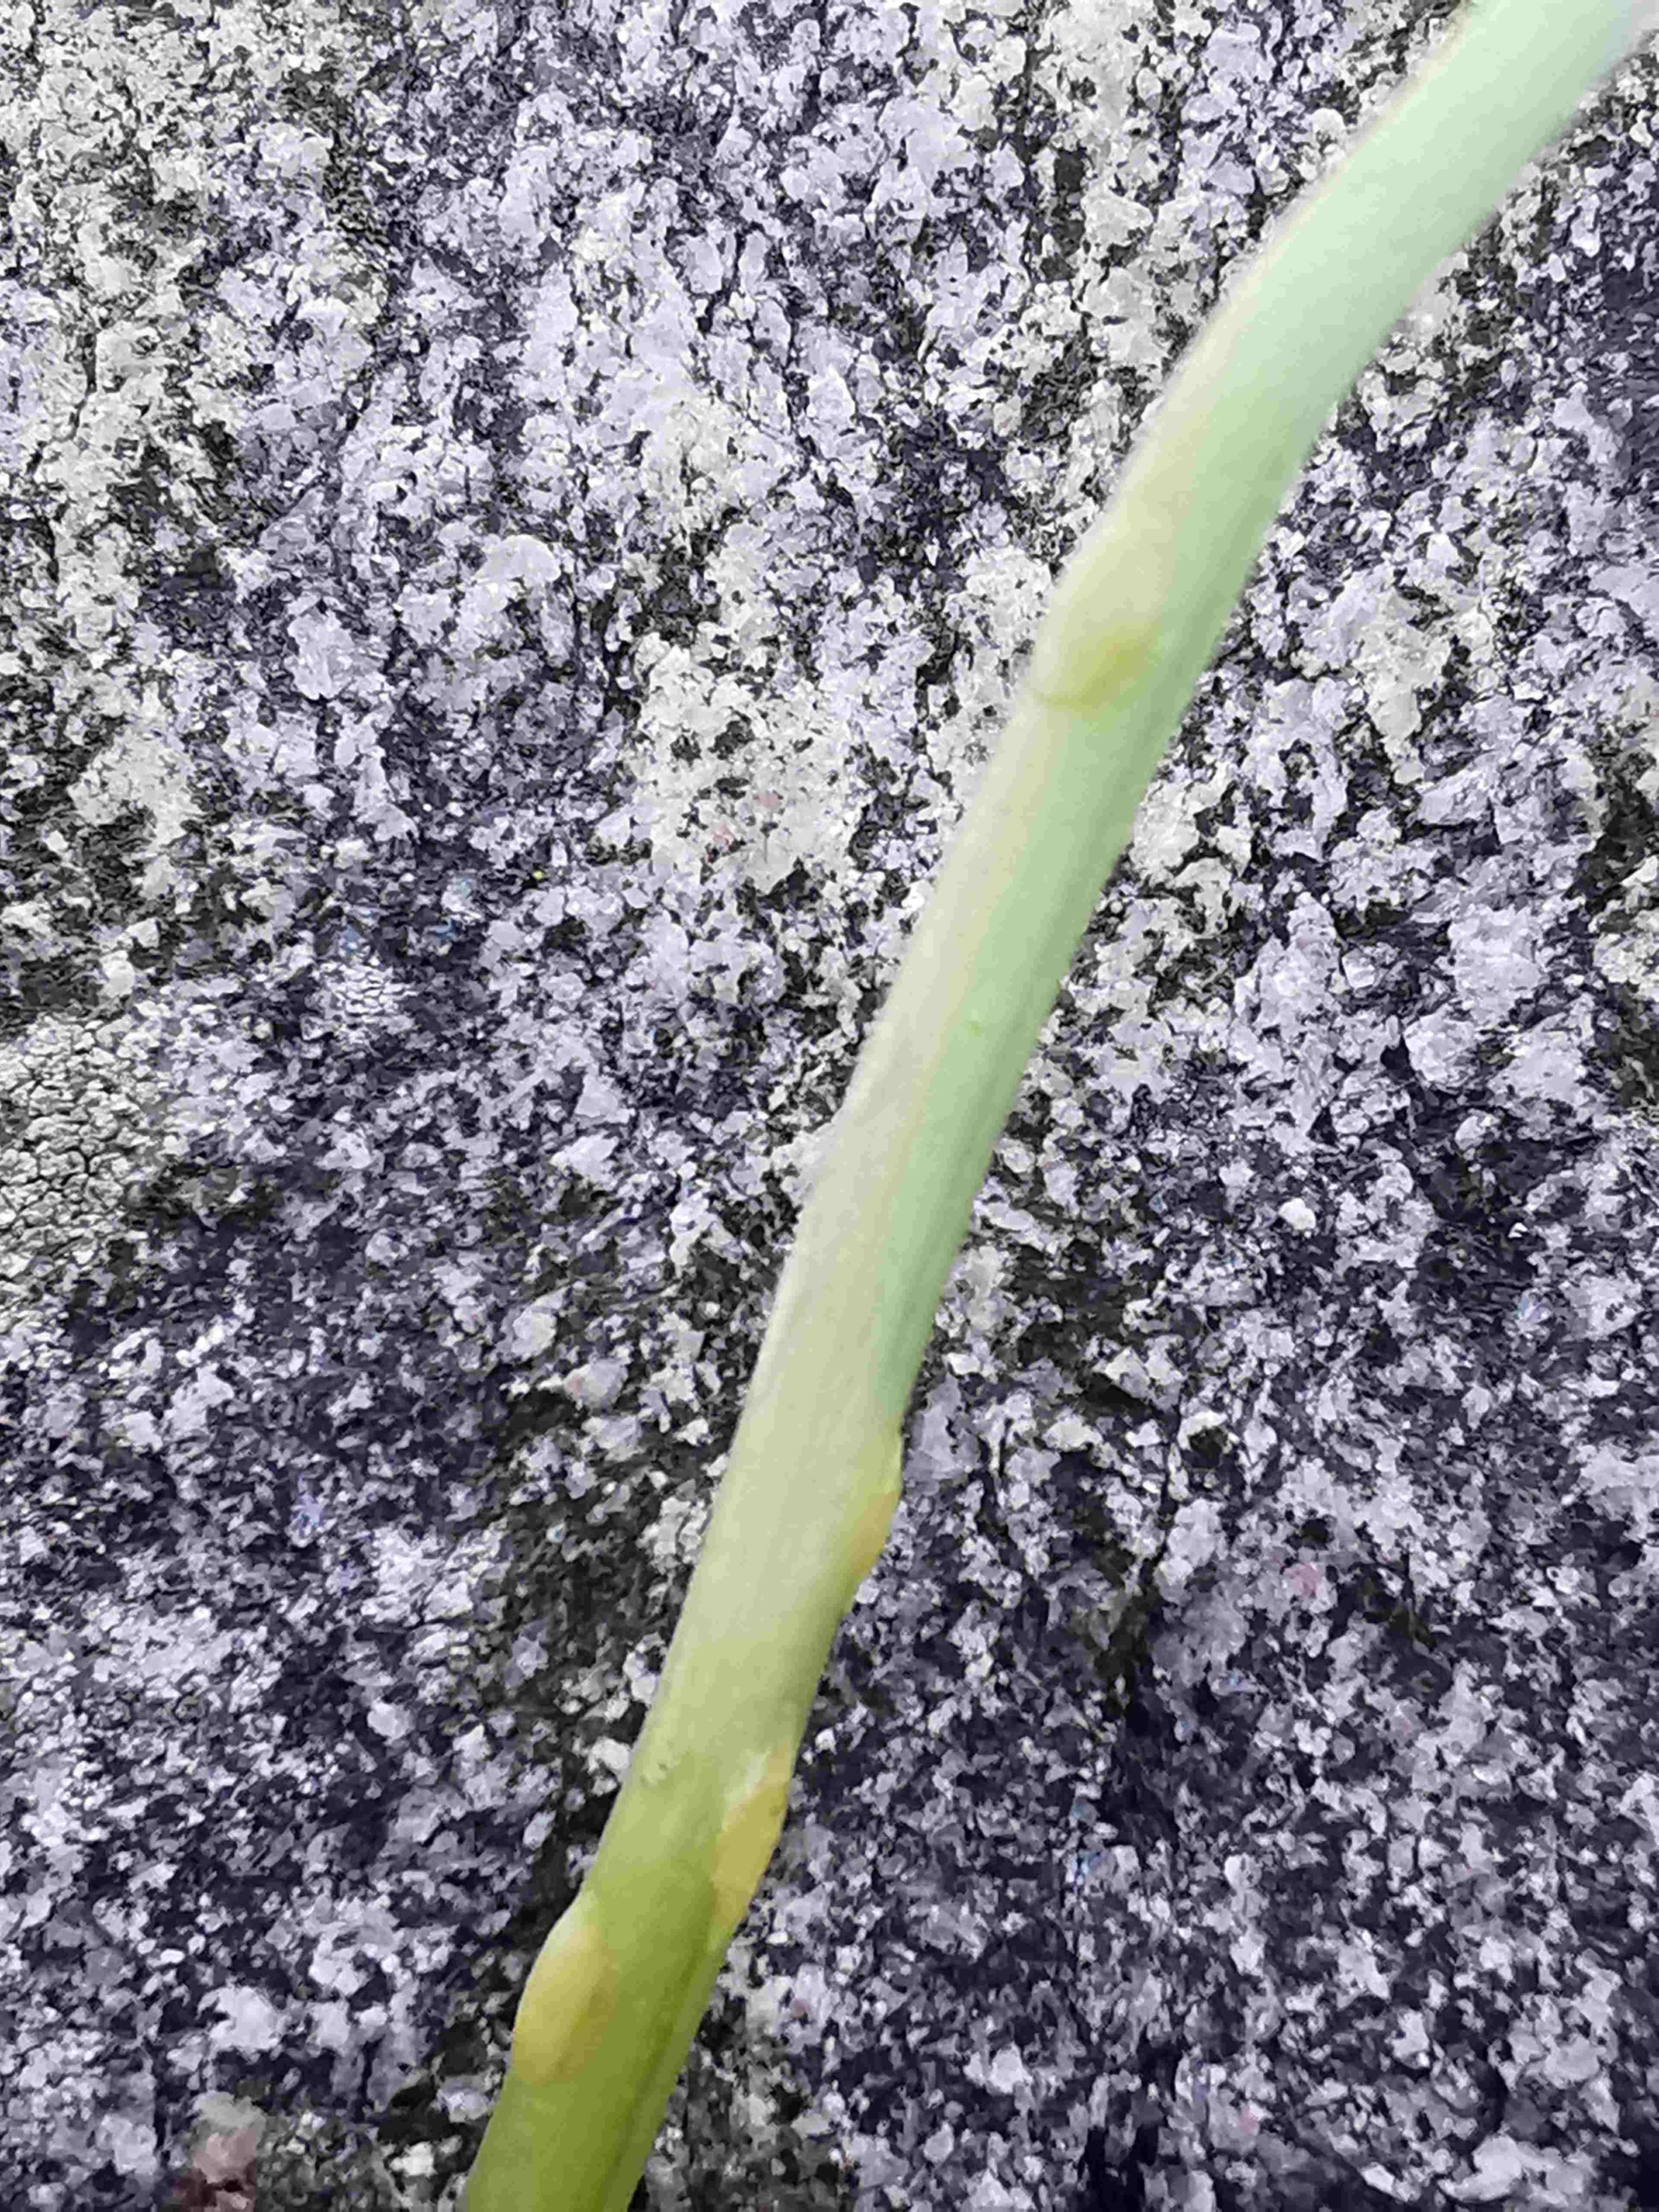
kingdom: Fungi
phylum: Ascomycota
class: Taphrinomycetes
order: Taphrinales
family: Taphrinaceae
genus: Protomyces
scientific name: Protomyces macrosporus
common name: skvalderkål-vablesæk
